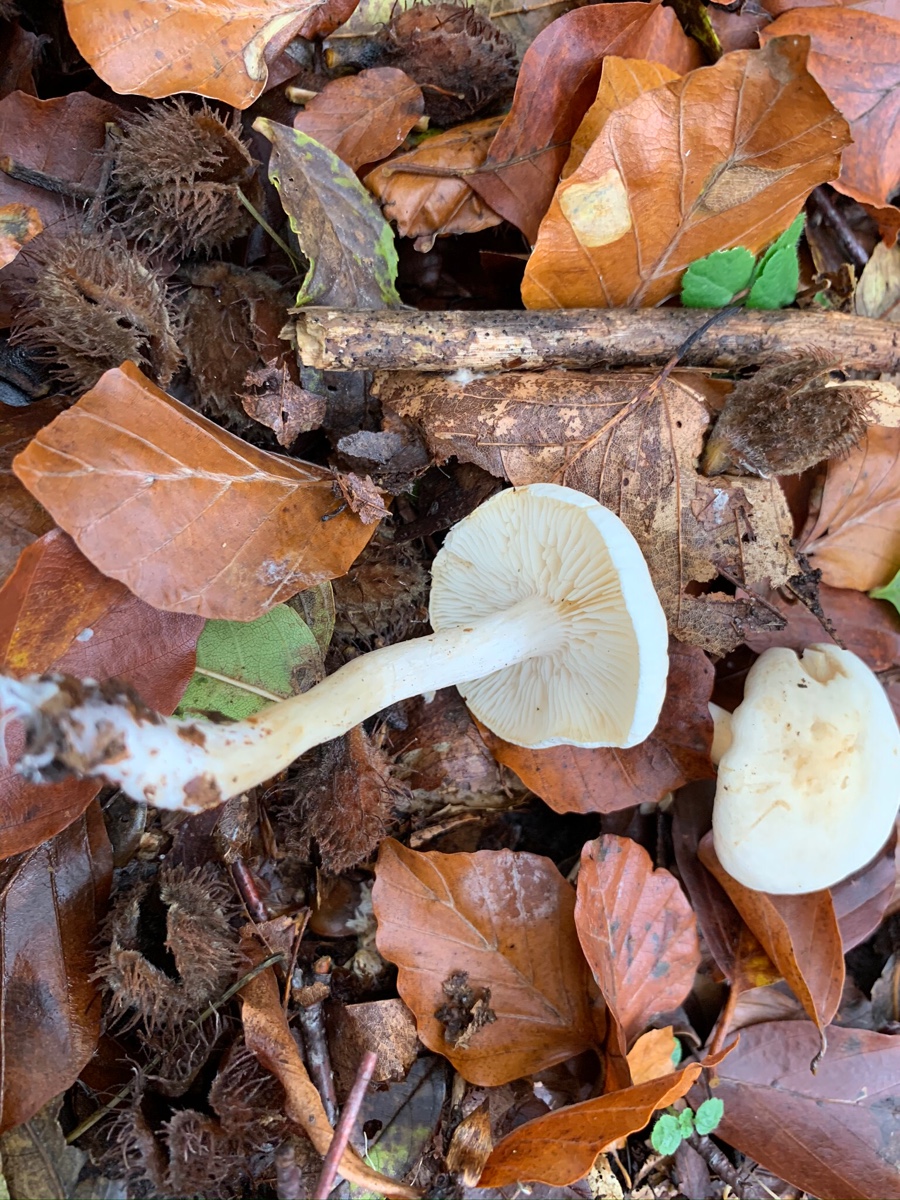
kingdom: Fungi
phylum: Basidiomycota
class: Agaricomycetes
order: Agaricales
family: Tricholomataceae
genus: Tricholoma
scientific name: Tricholoma lascivum
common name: stinkende ridderhat
